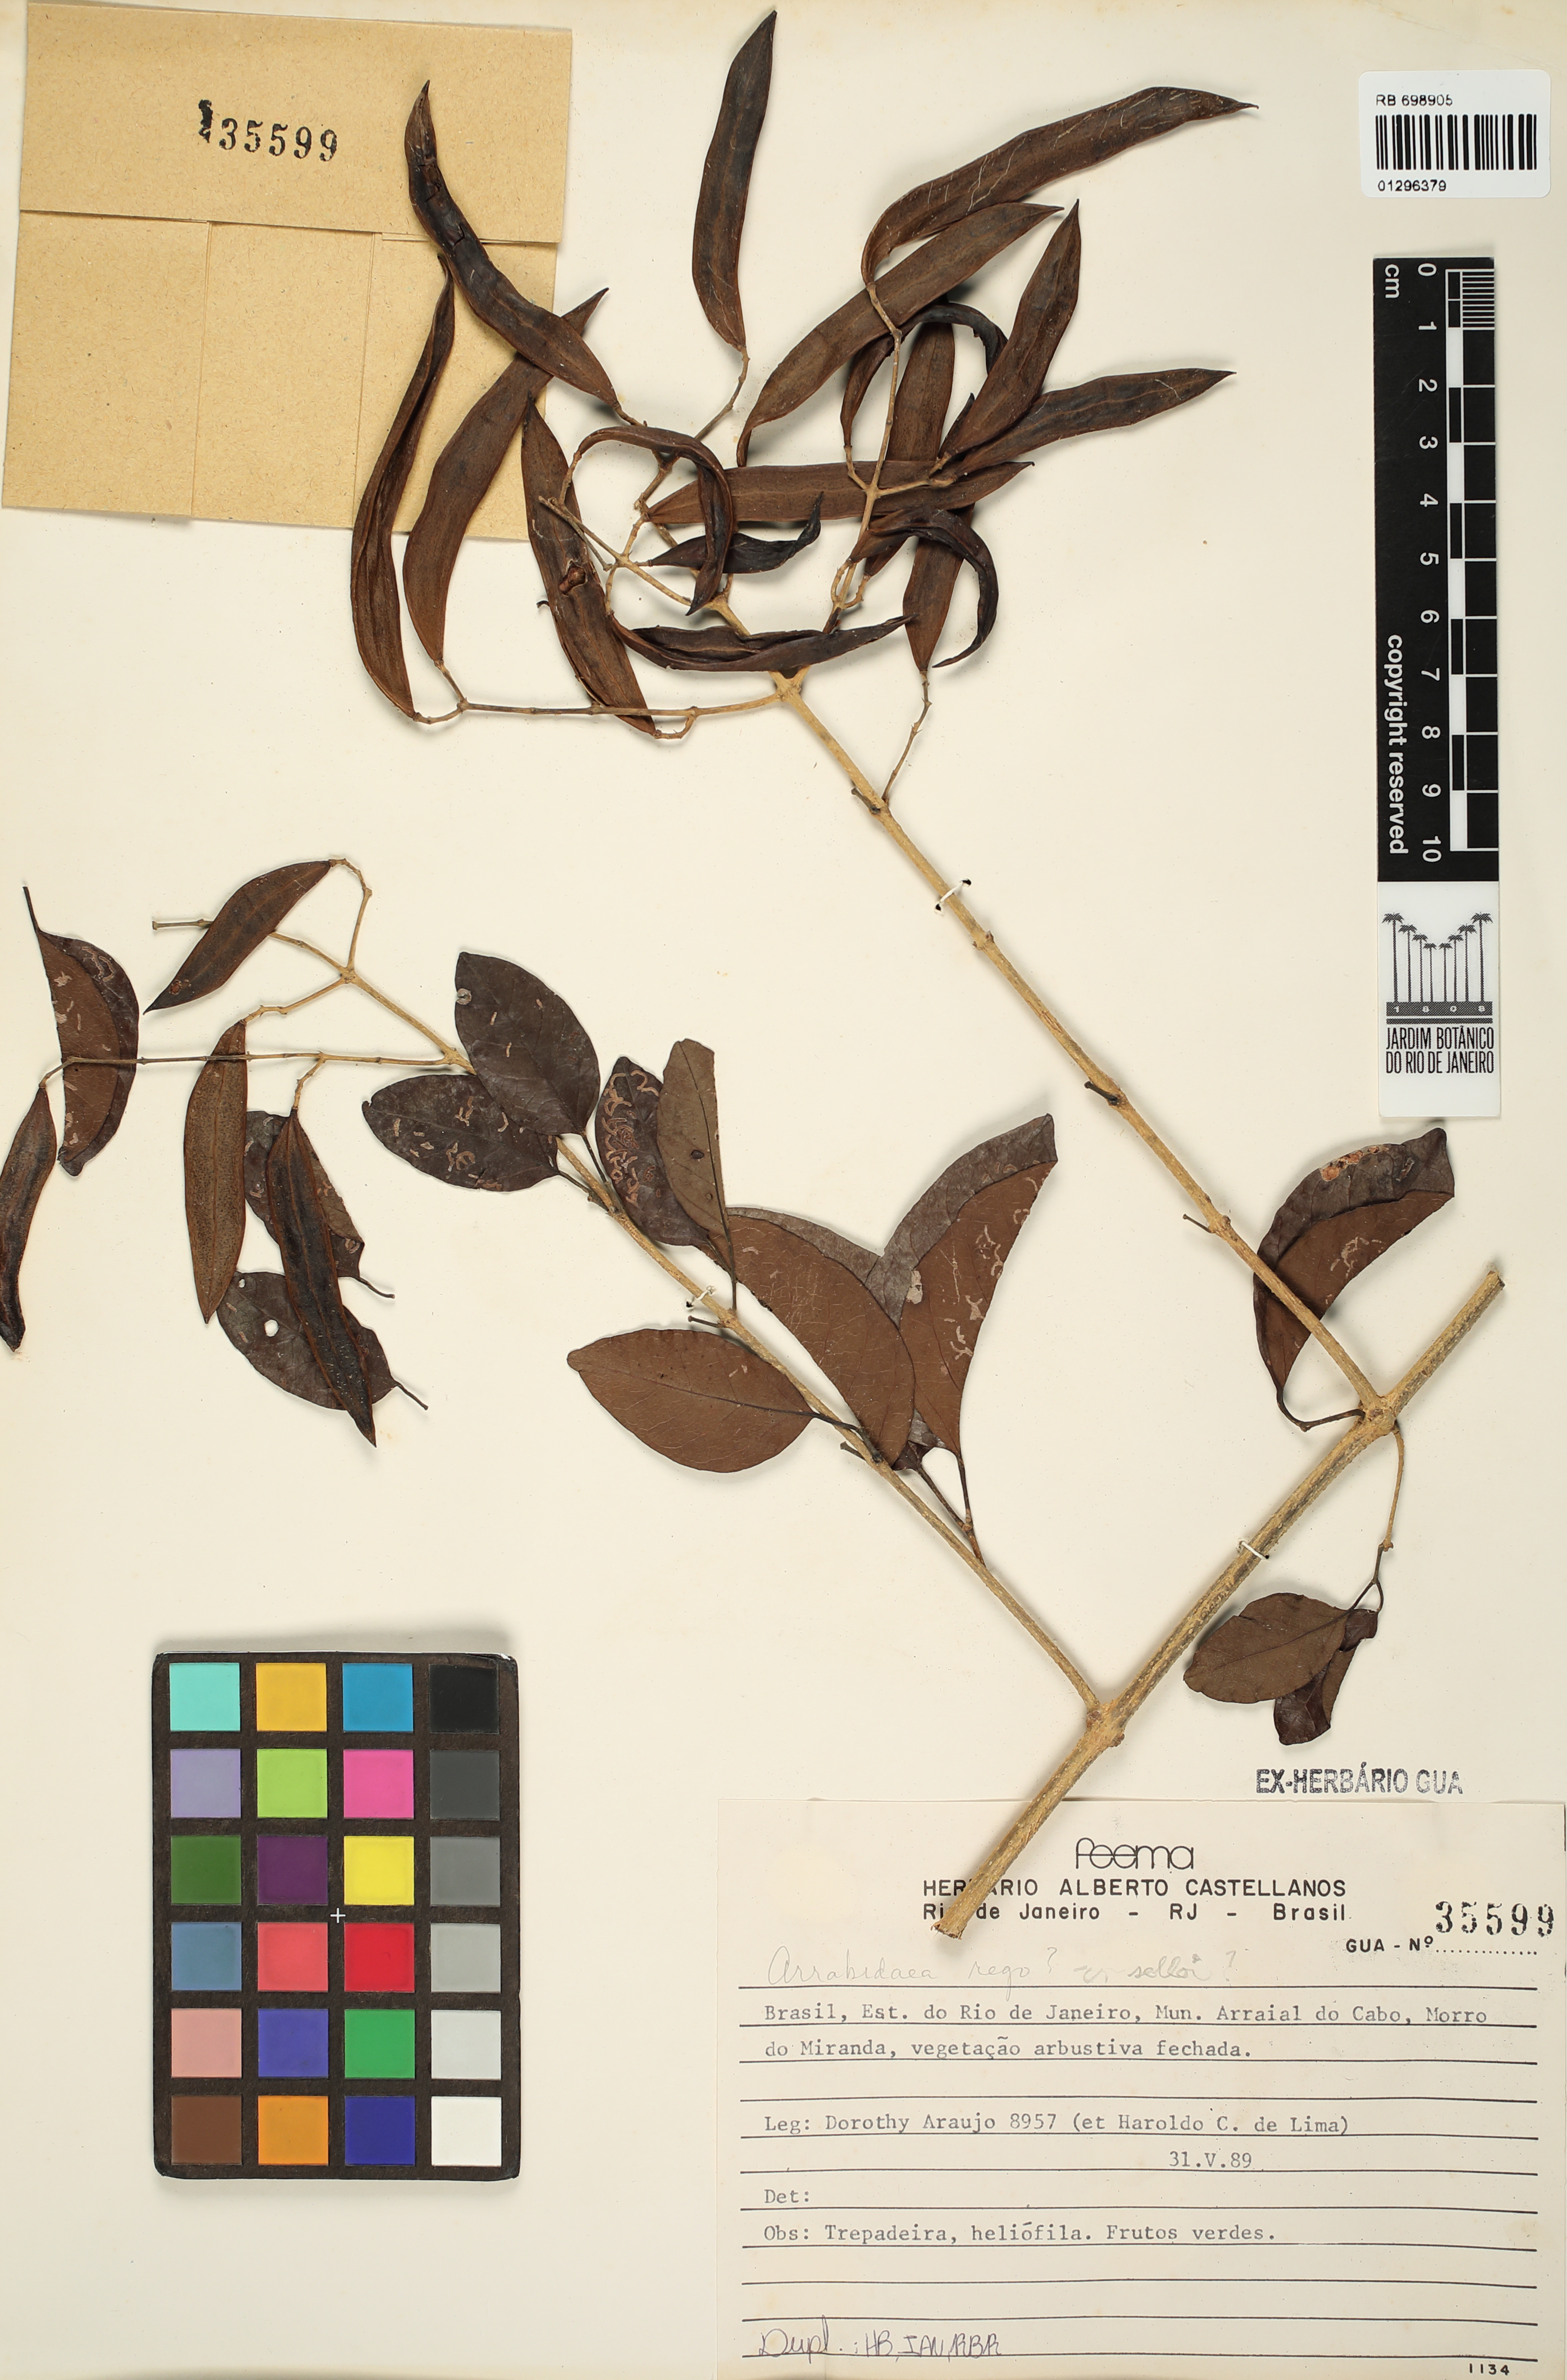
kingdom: Plantae
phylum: Tracheophyta
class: Magnoliopsida
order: Lamiales
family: Bignoniaceae
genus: Fridericia
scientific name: Fridericia rego
